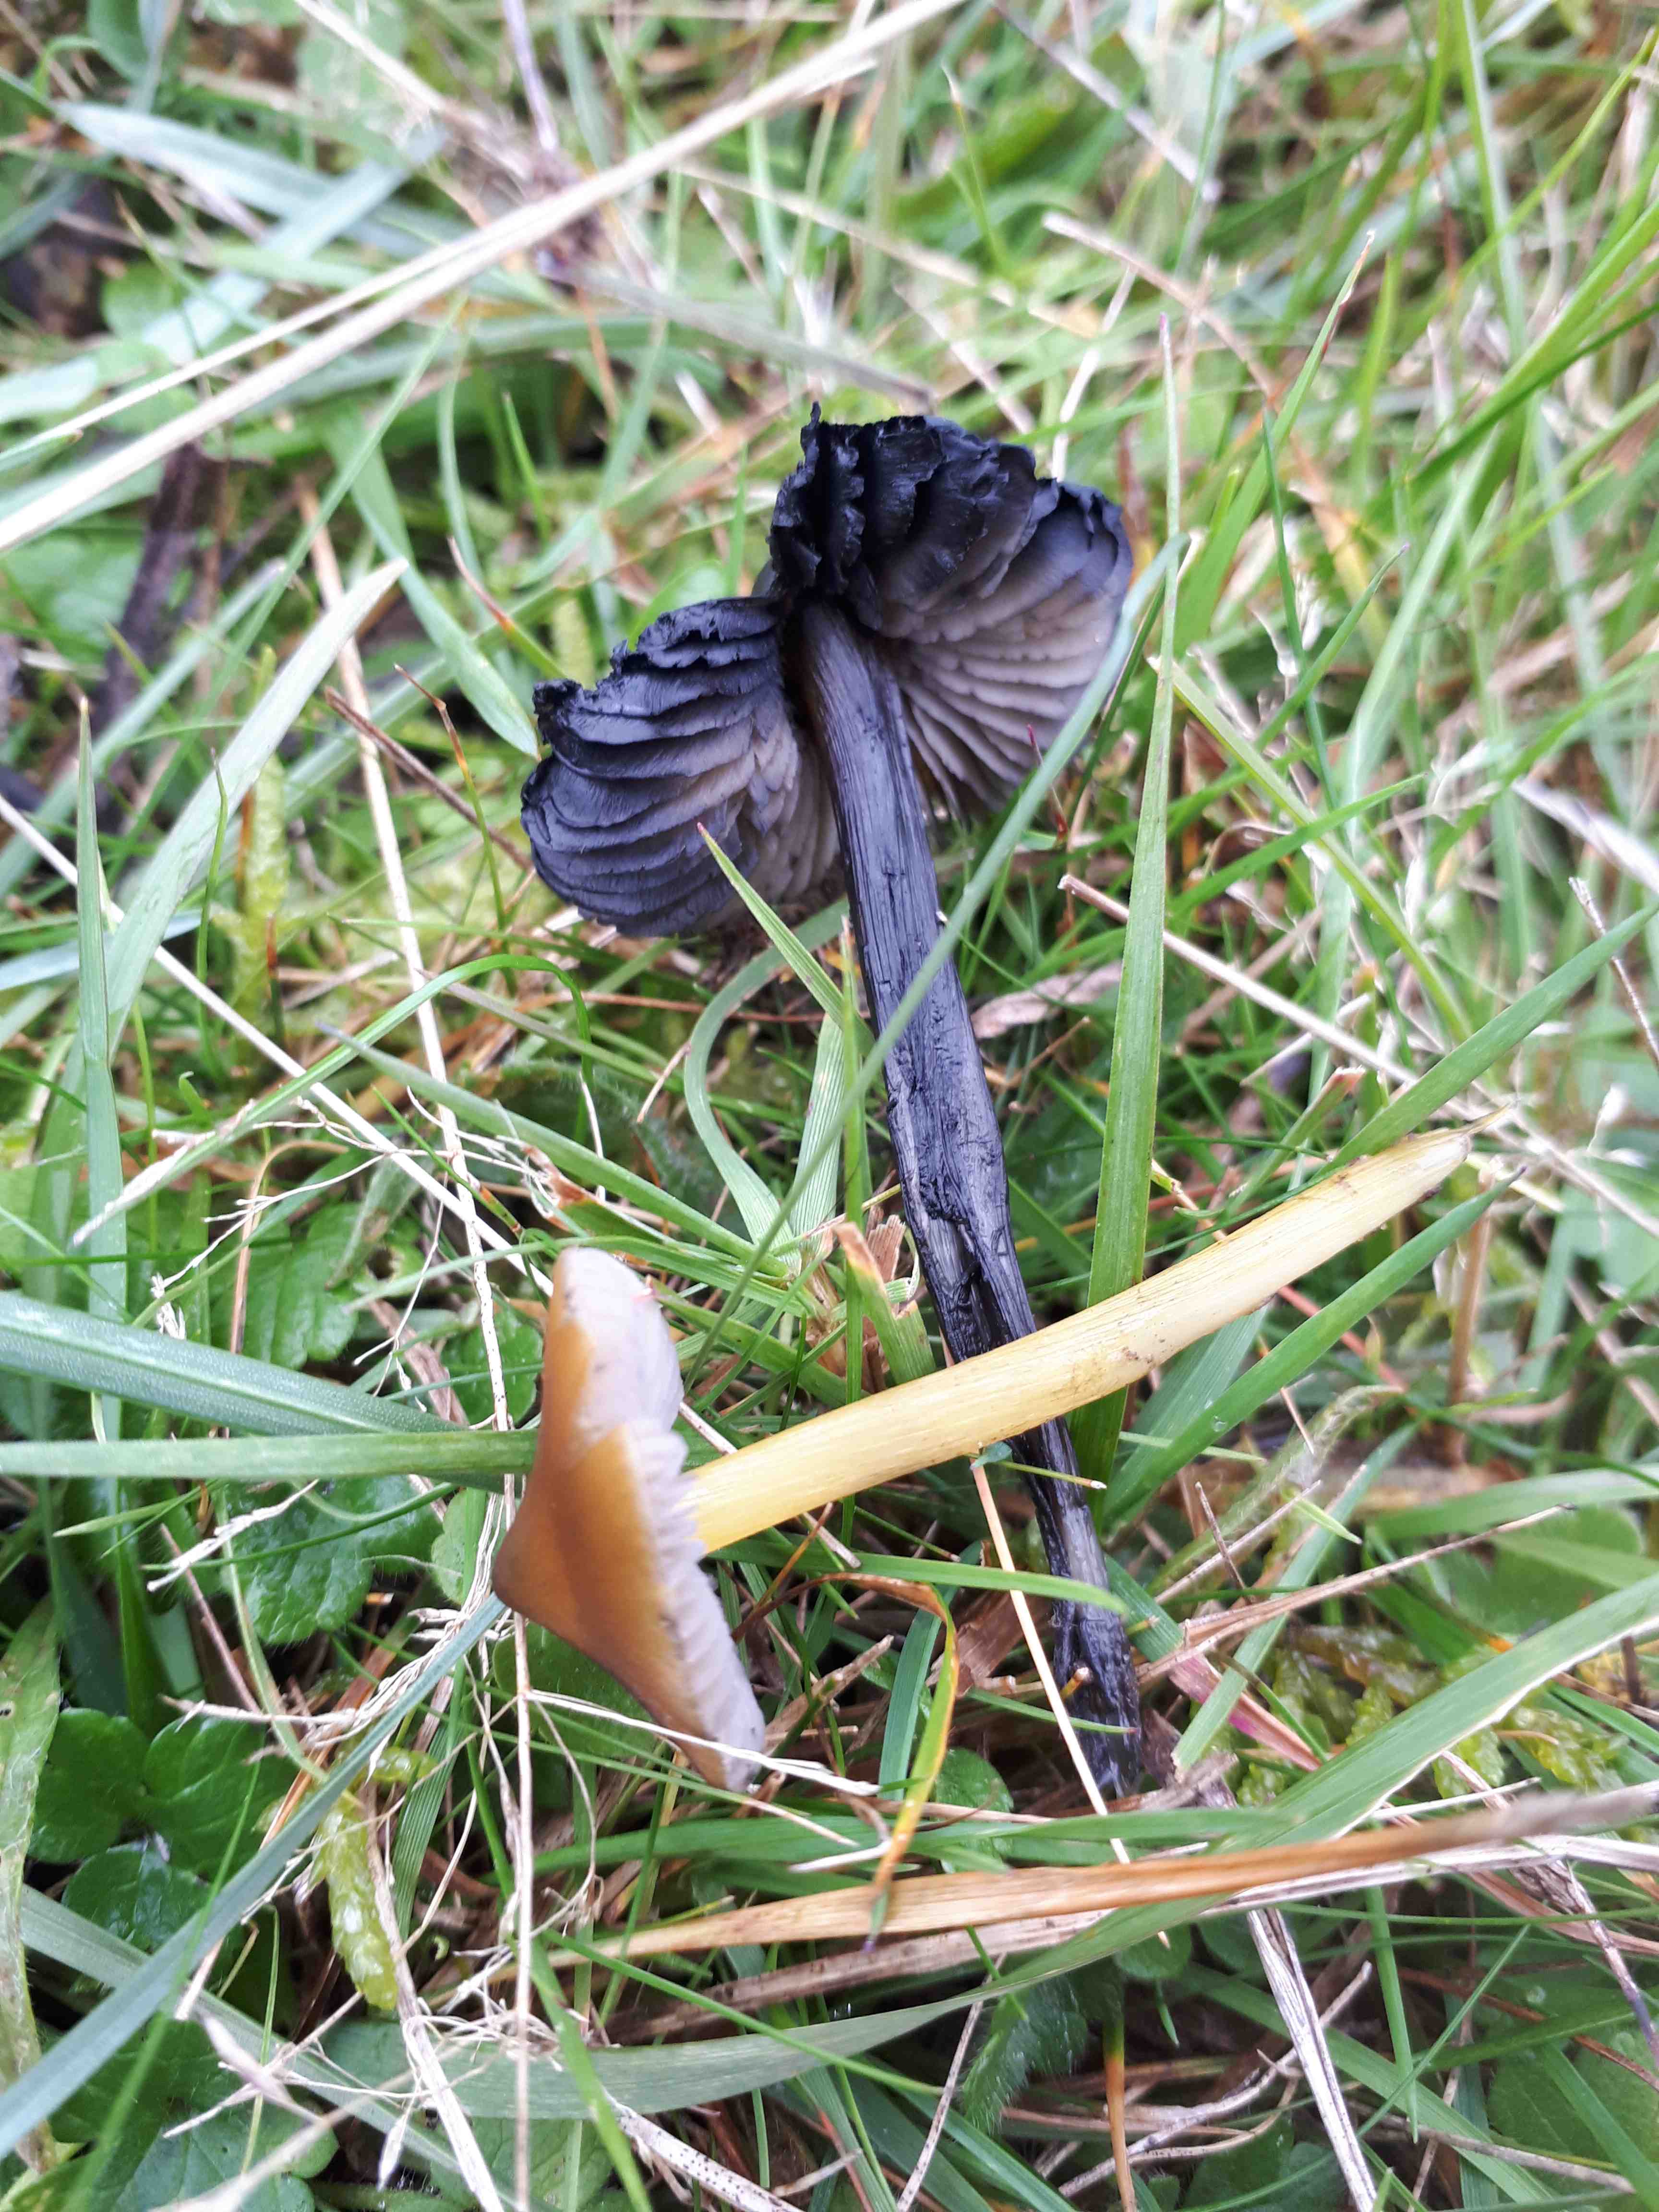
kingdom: Fungi
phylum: Basidiomycota
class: Agaricomycetes
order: Agaricales
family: Hygrophoraceae
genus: Hygrocybe
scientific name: Hygrocybe conica
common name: kegle-vokshat
